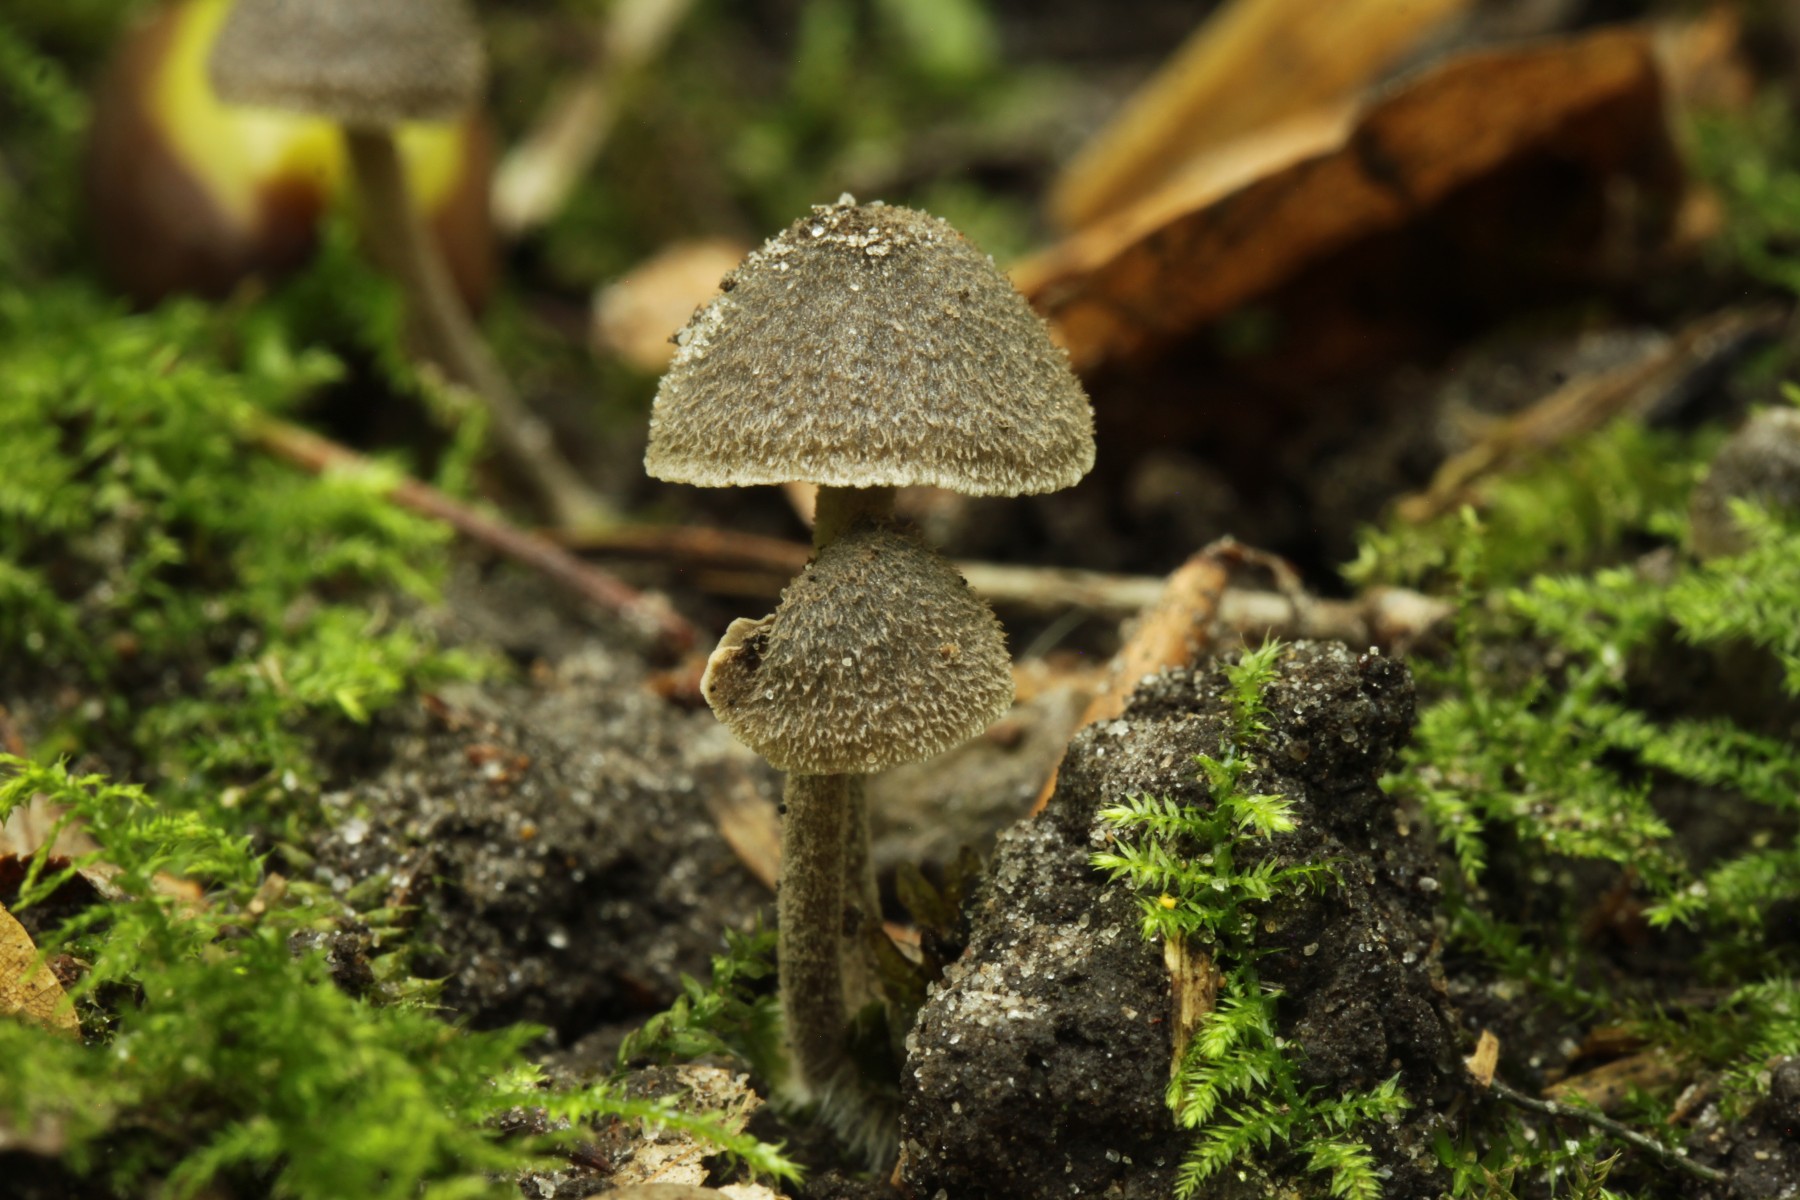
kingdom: Fungi
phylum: Basidiomycota
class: Agaricomycetes
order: Agaricales
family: Entolomataceae
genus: Entoloma
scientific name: Entoloma dysthaloides
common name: dyster rødblad
